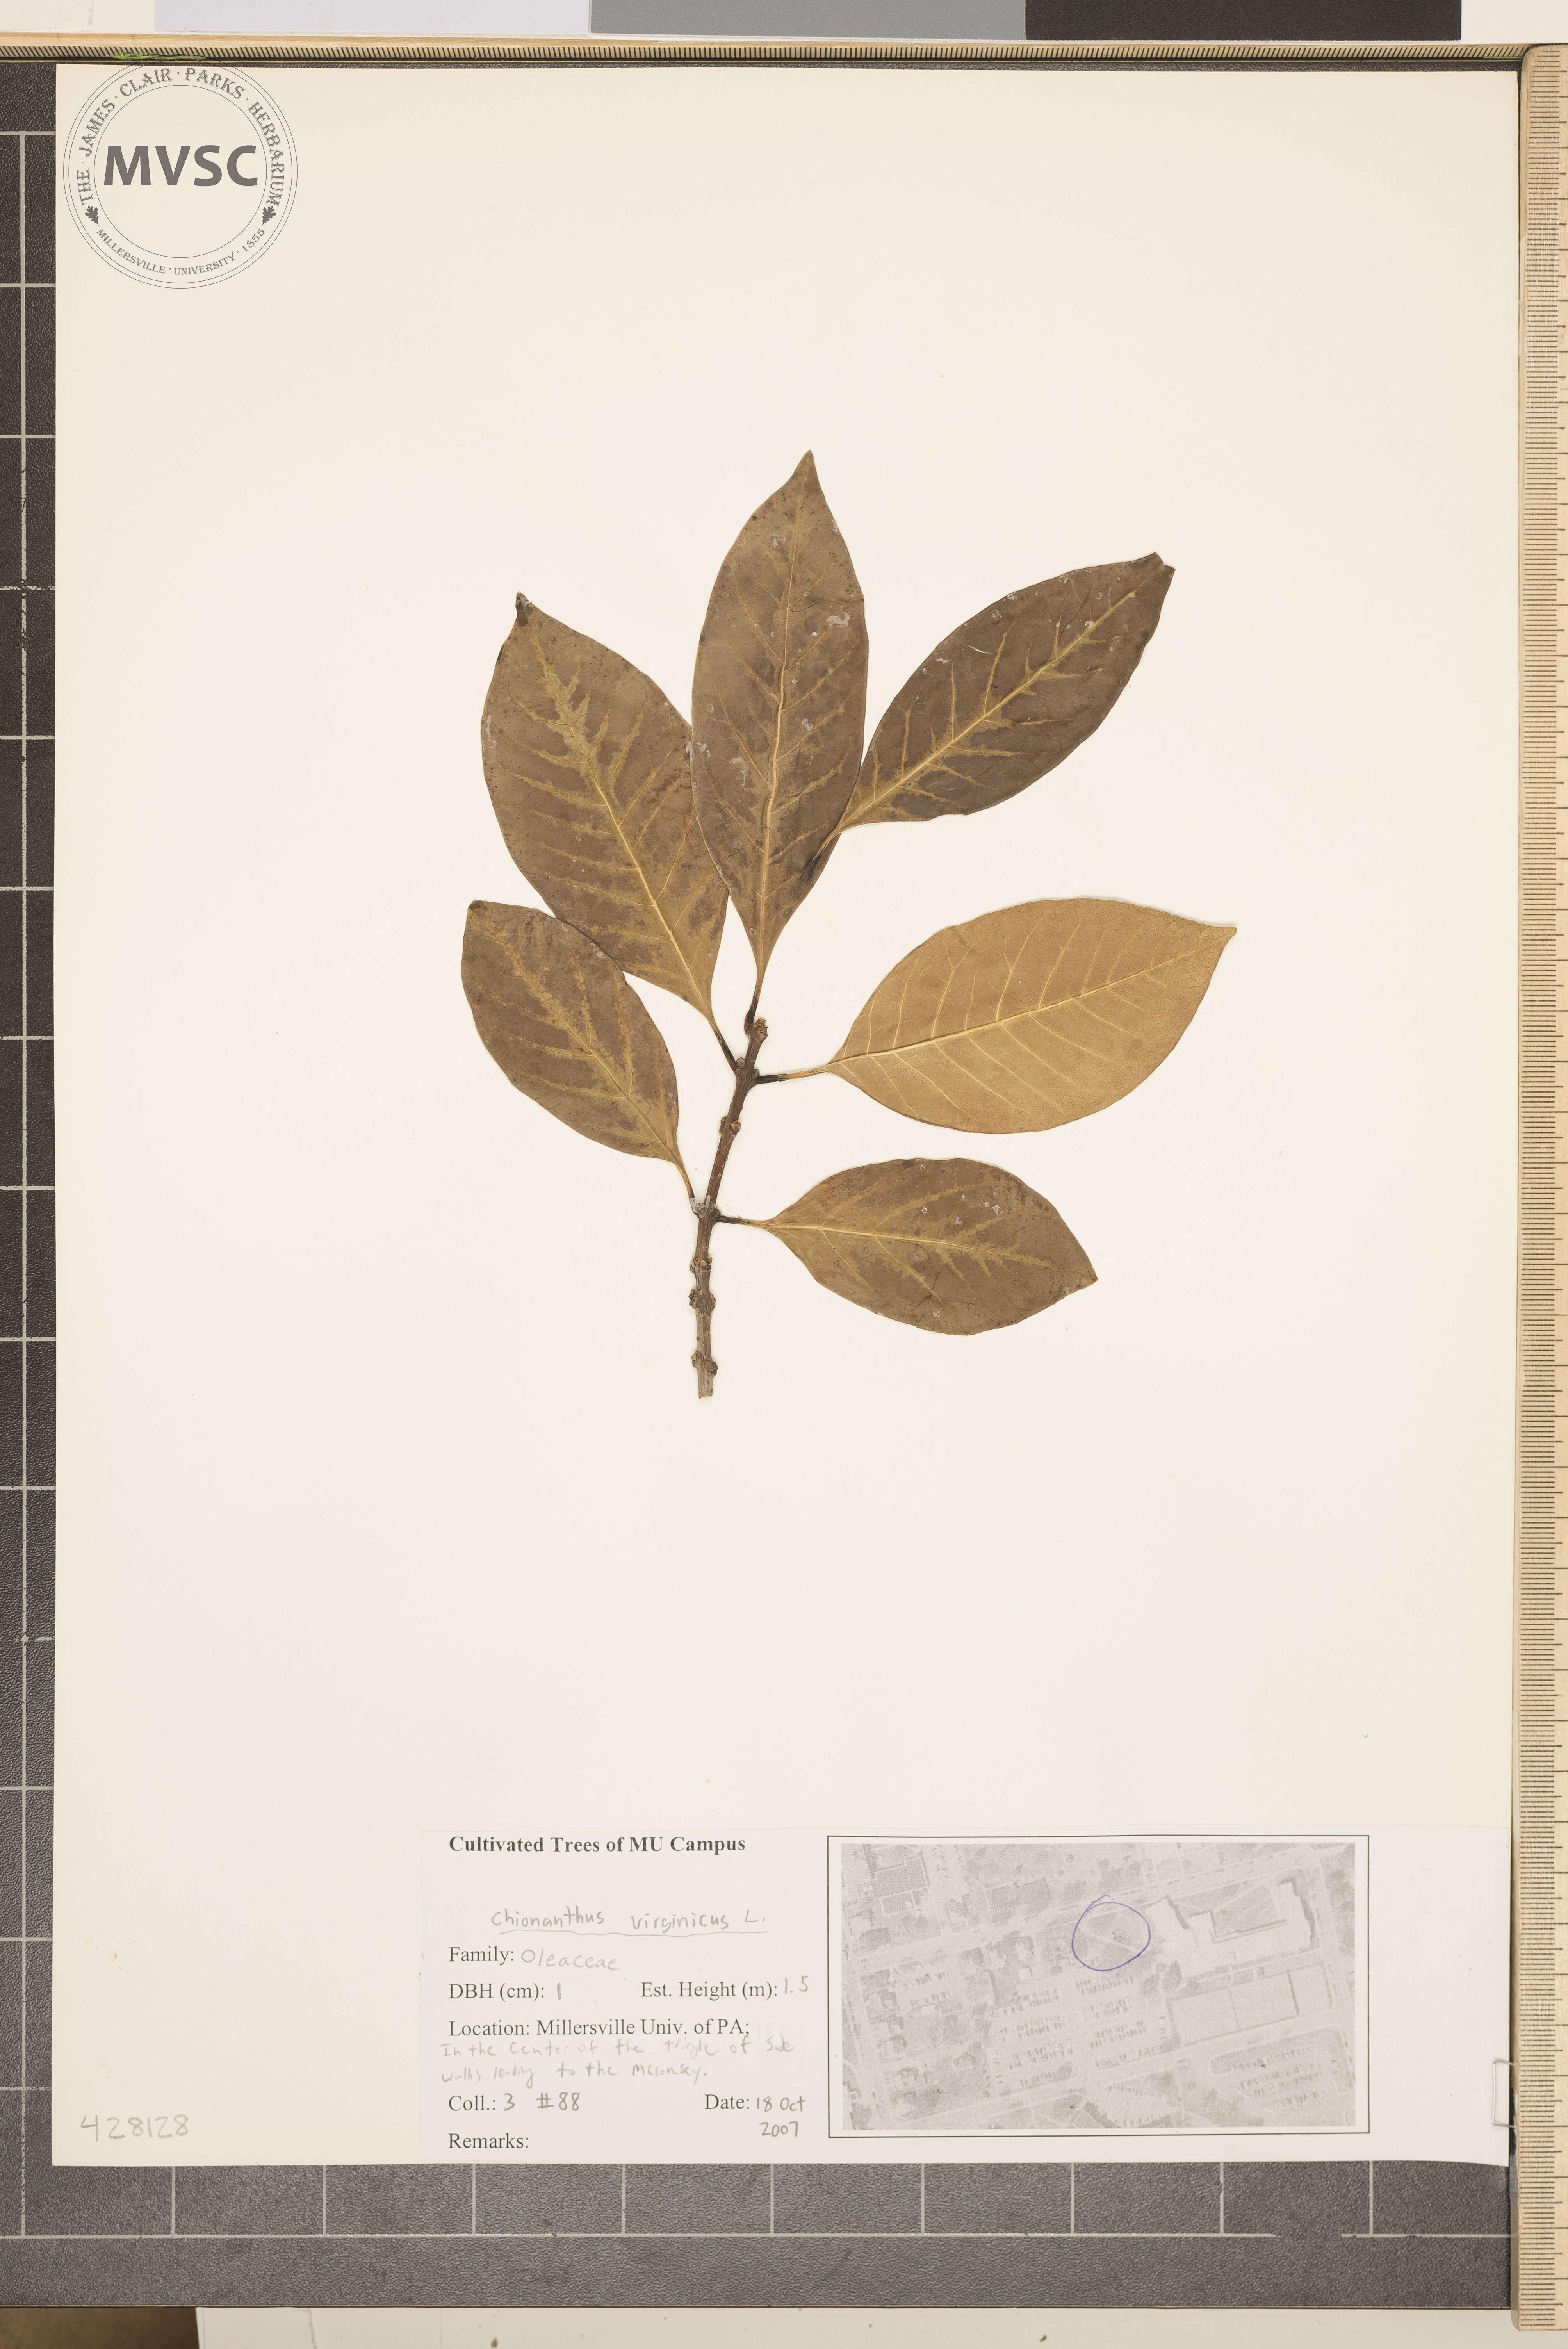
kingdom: Plantae
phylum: Tracheophyta
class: Magnoliopsida
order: Lamiales
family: Oleaceae
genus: Chionanthus
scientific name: Chionanthus virginicus
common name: Fringetree
